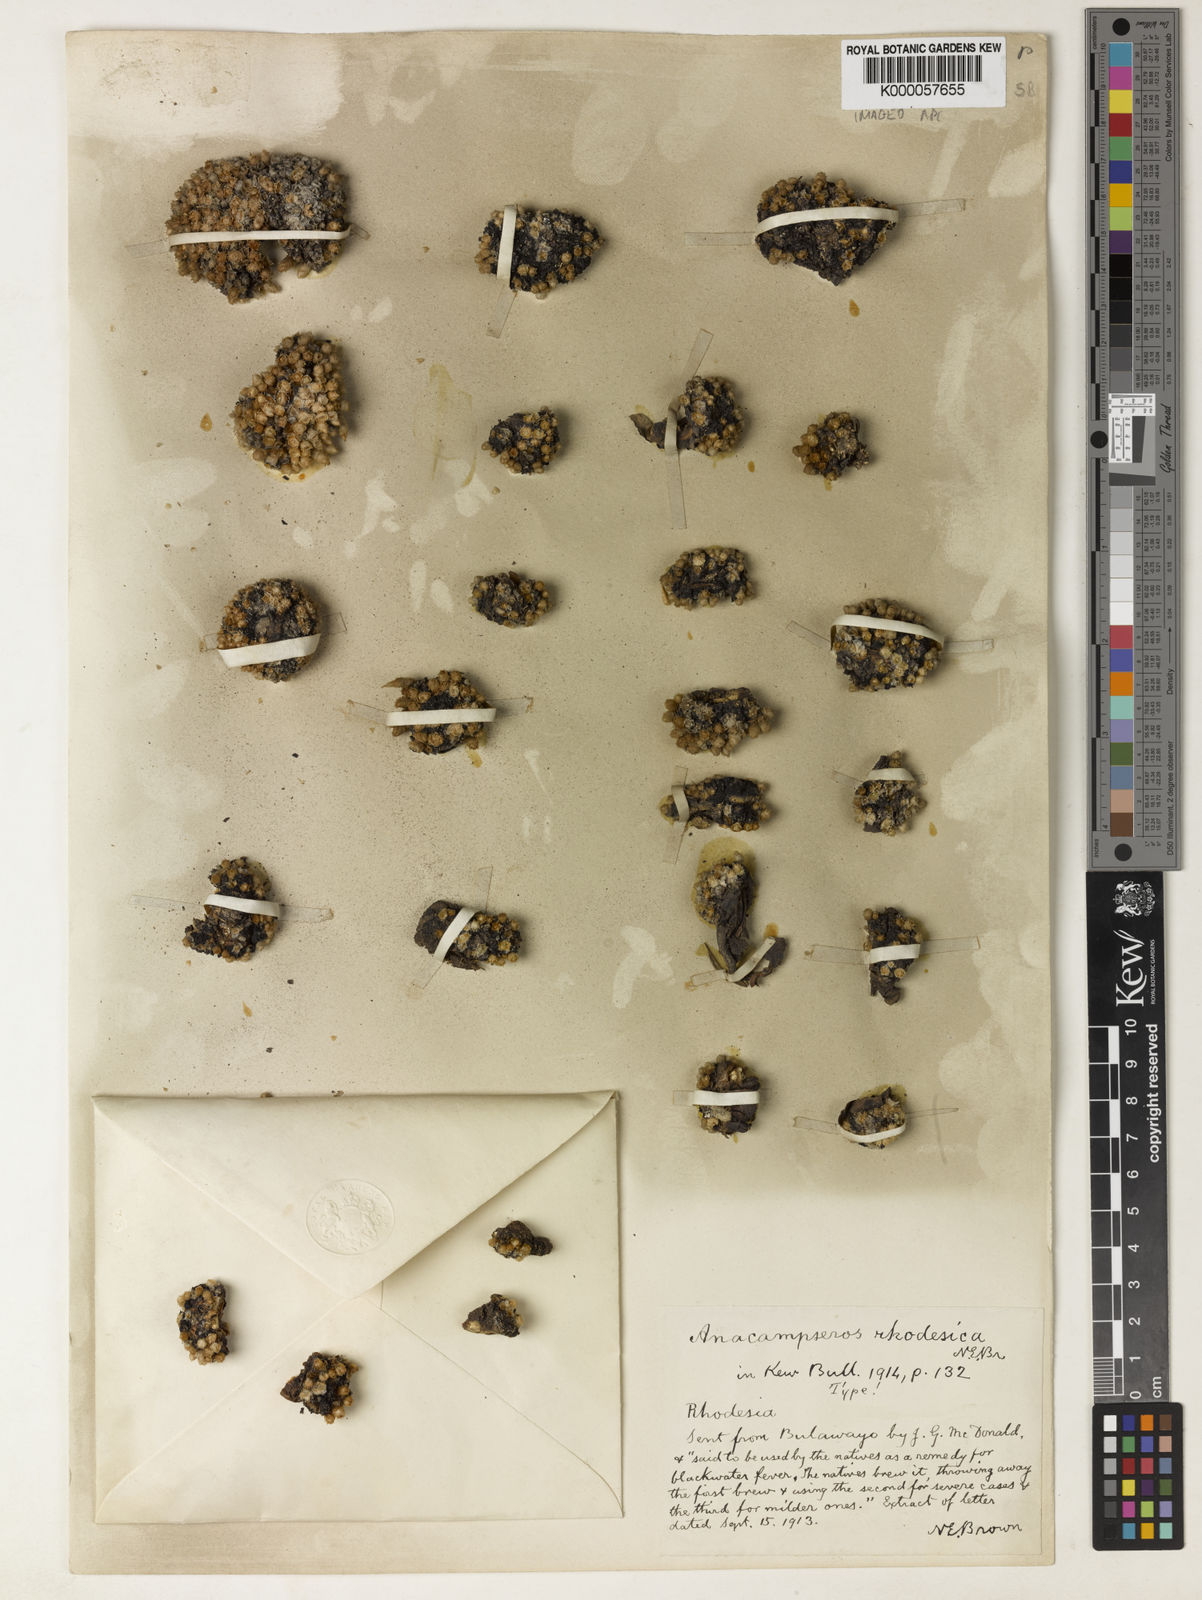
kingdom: Plantae
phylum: Tracheophyta
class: Magnoliopsida
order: Caryophyllales
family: Anacampserotaceae
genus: Avonia
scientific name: Avonia rhodesica
